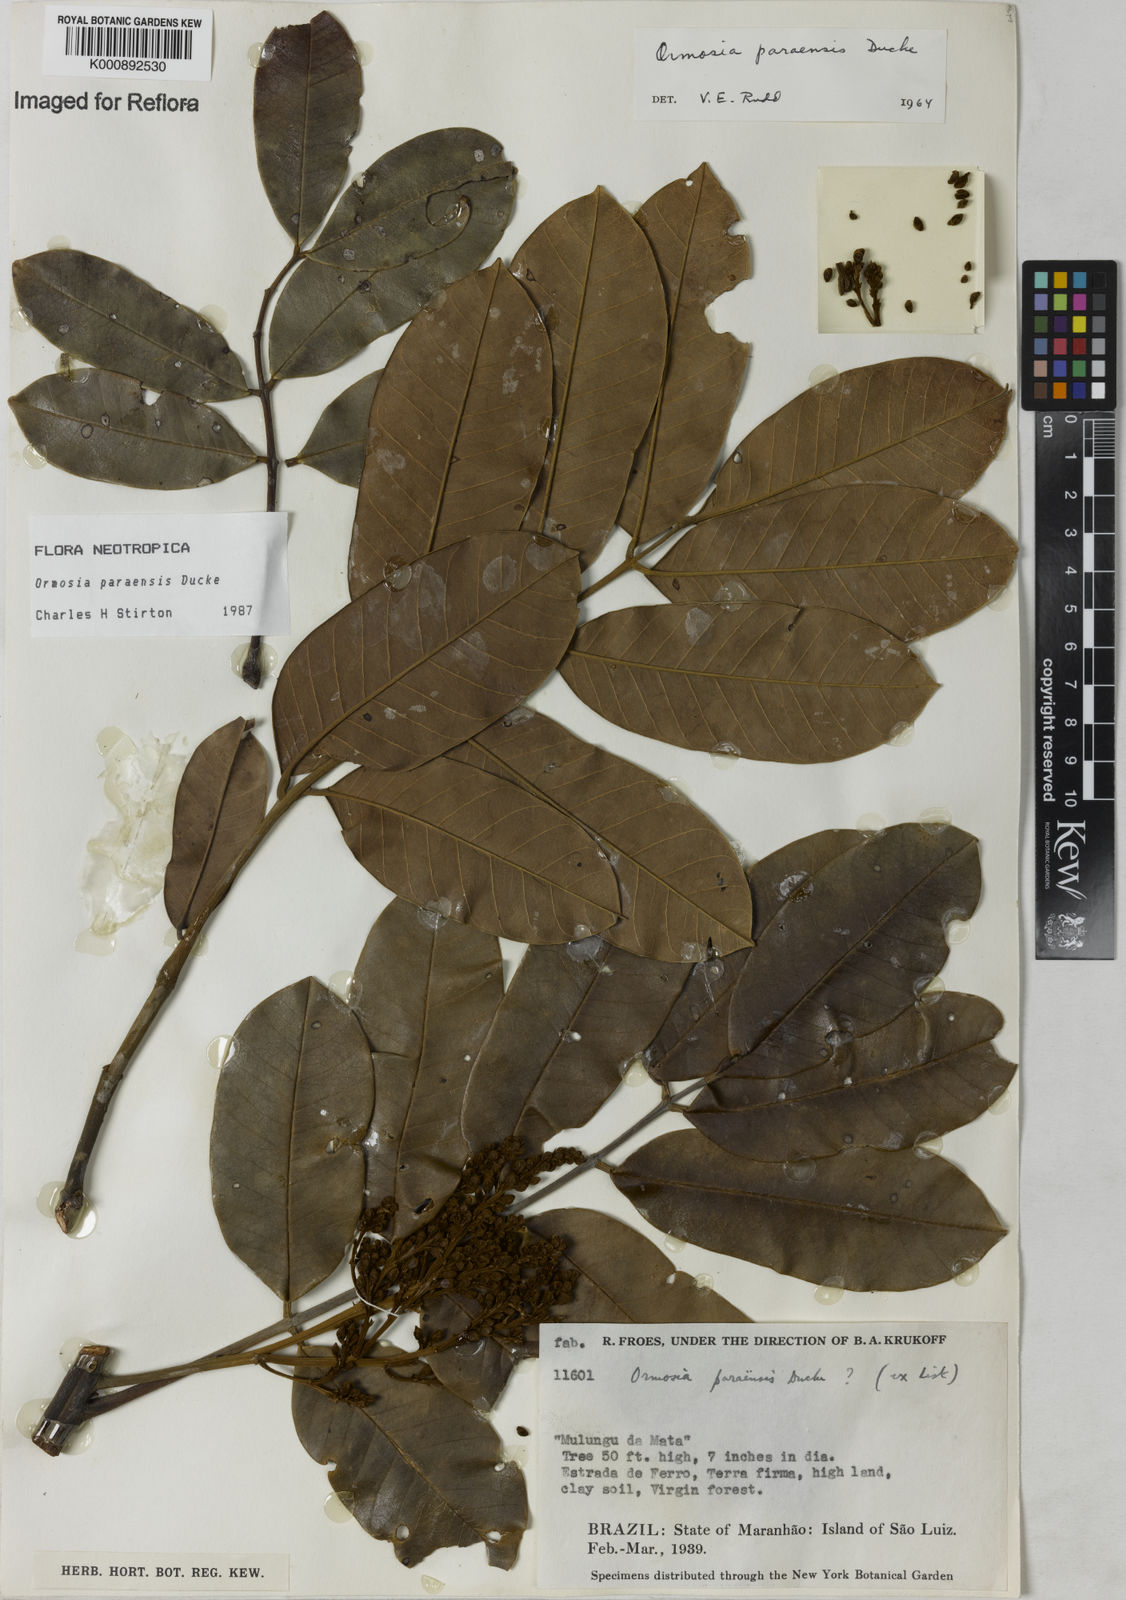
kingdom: Plantae
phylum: Tracheophyta
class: Magnoliopsida
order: Fabales
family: Fabaceae
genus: Ormosia
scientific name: Ormosia paraensis
